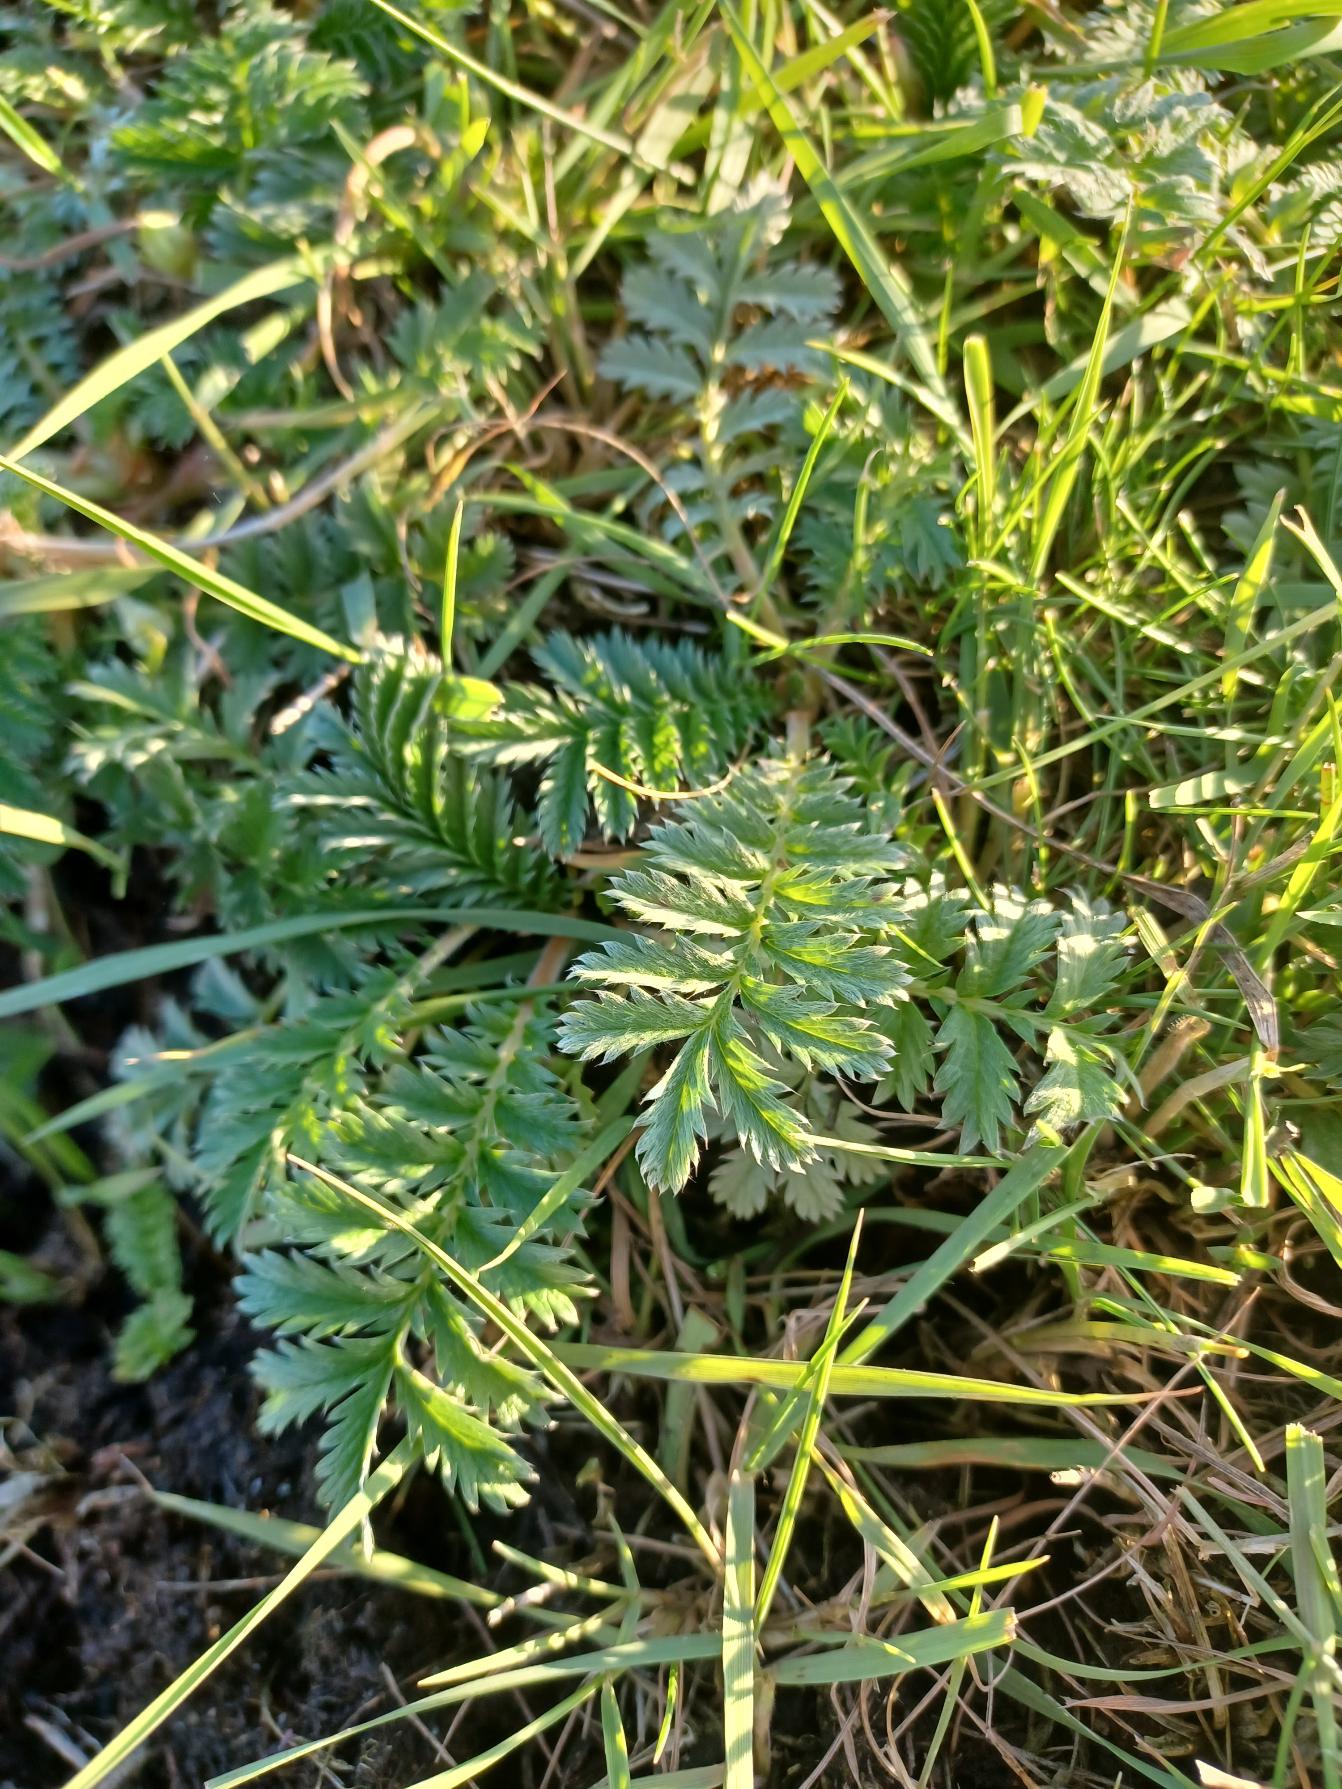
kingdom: Plantae
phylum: Tracheophyta
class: Magnoliopsida
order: Rosales
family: Rosaceae
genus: Argentina
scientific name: Argentina anserina
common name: Gåsepotentil
